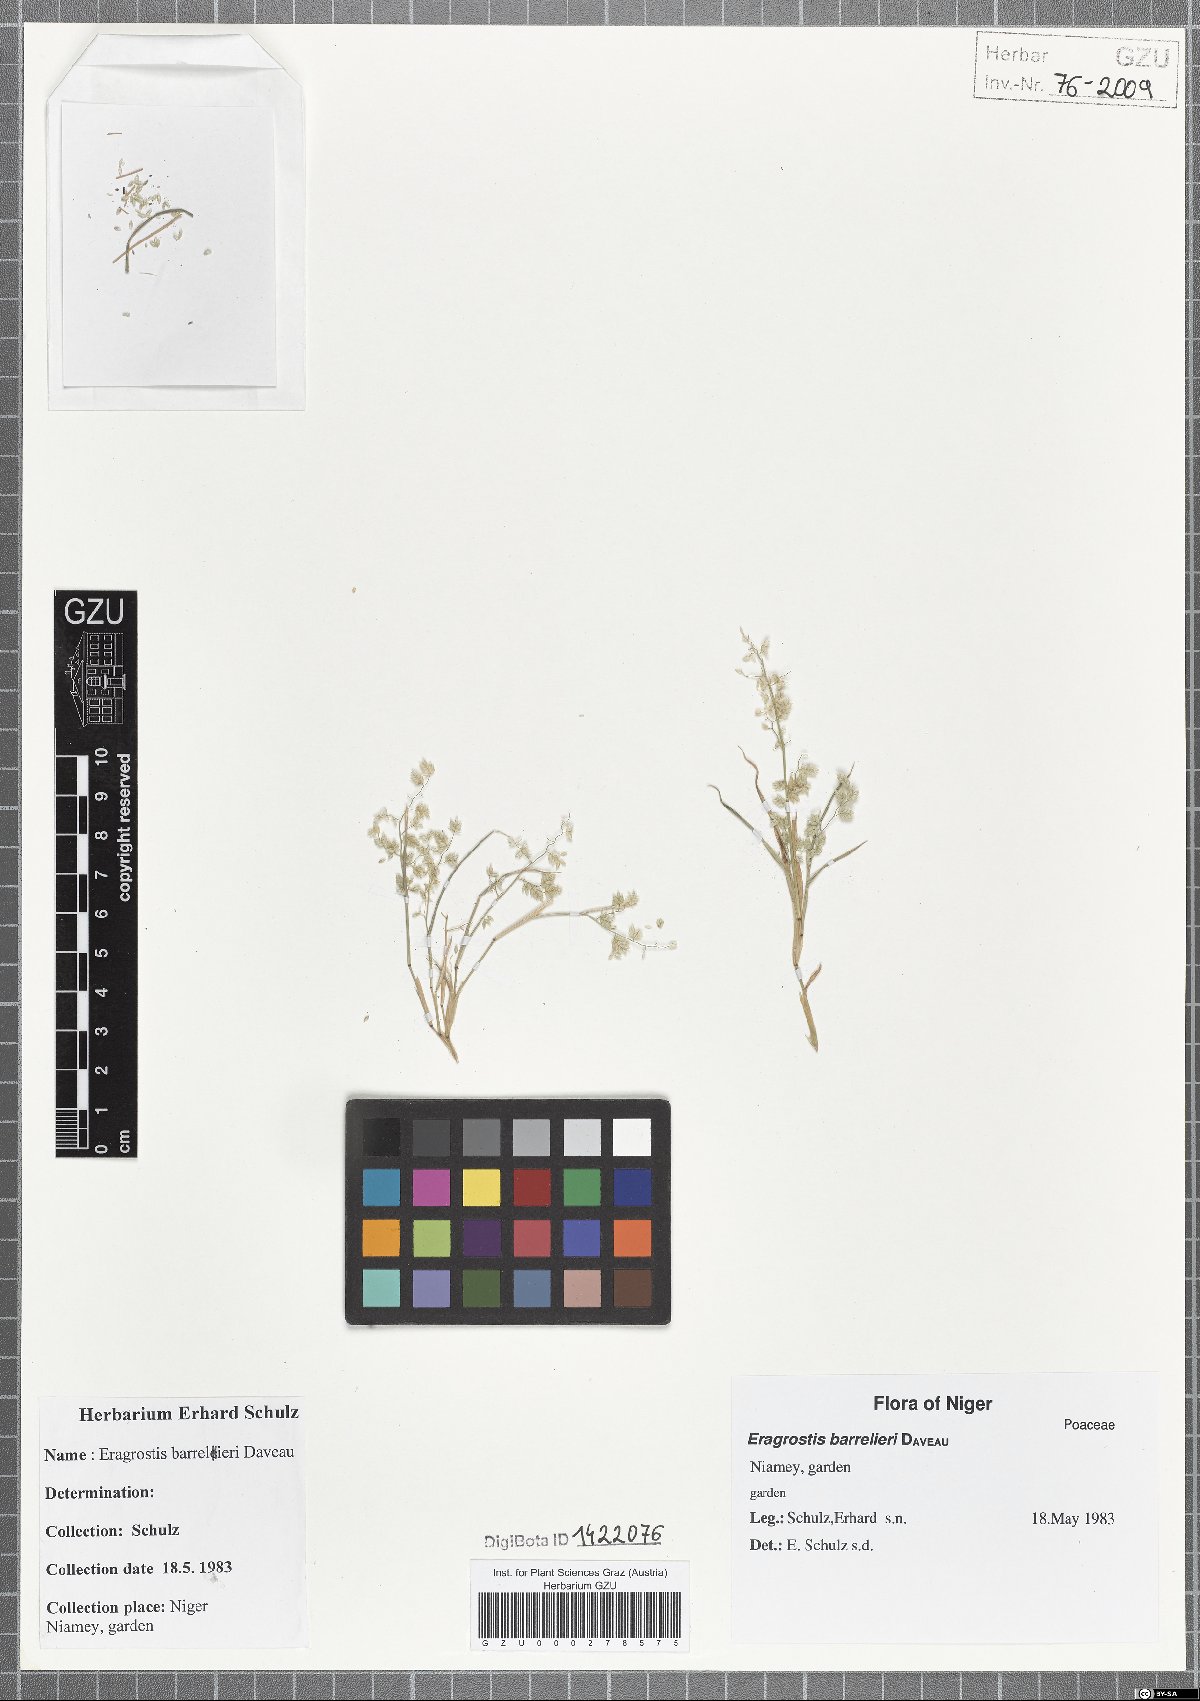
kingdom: Plantae
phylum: Tracheophyta
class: Liliopsida
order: Poales
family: Poaceae
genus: Eragrostis
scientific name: Eragrostis barrelieri
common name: Mediterranean lovegrass
